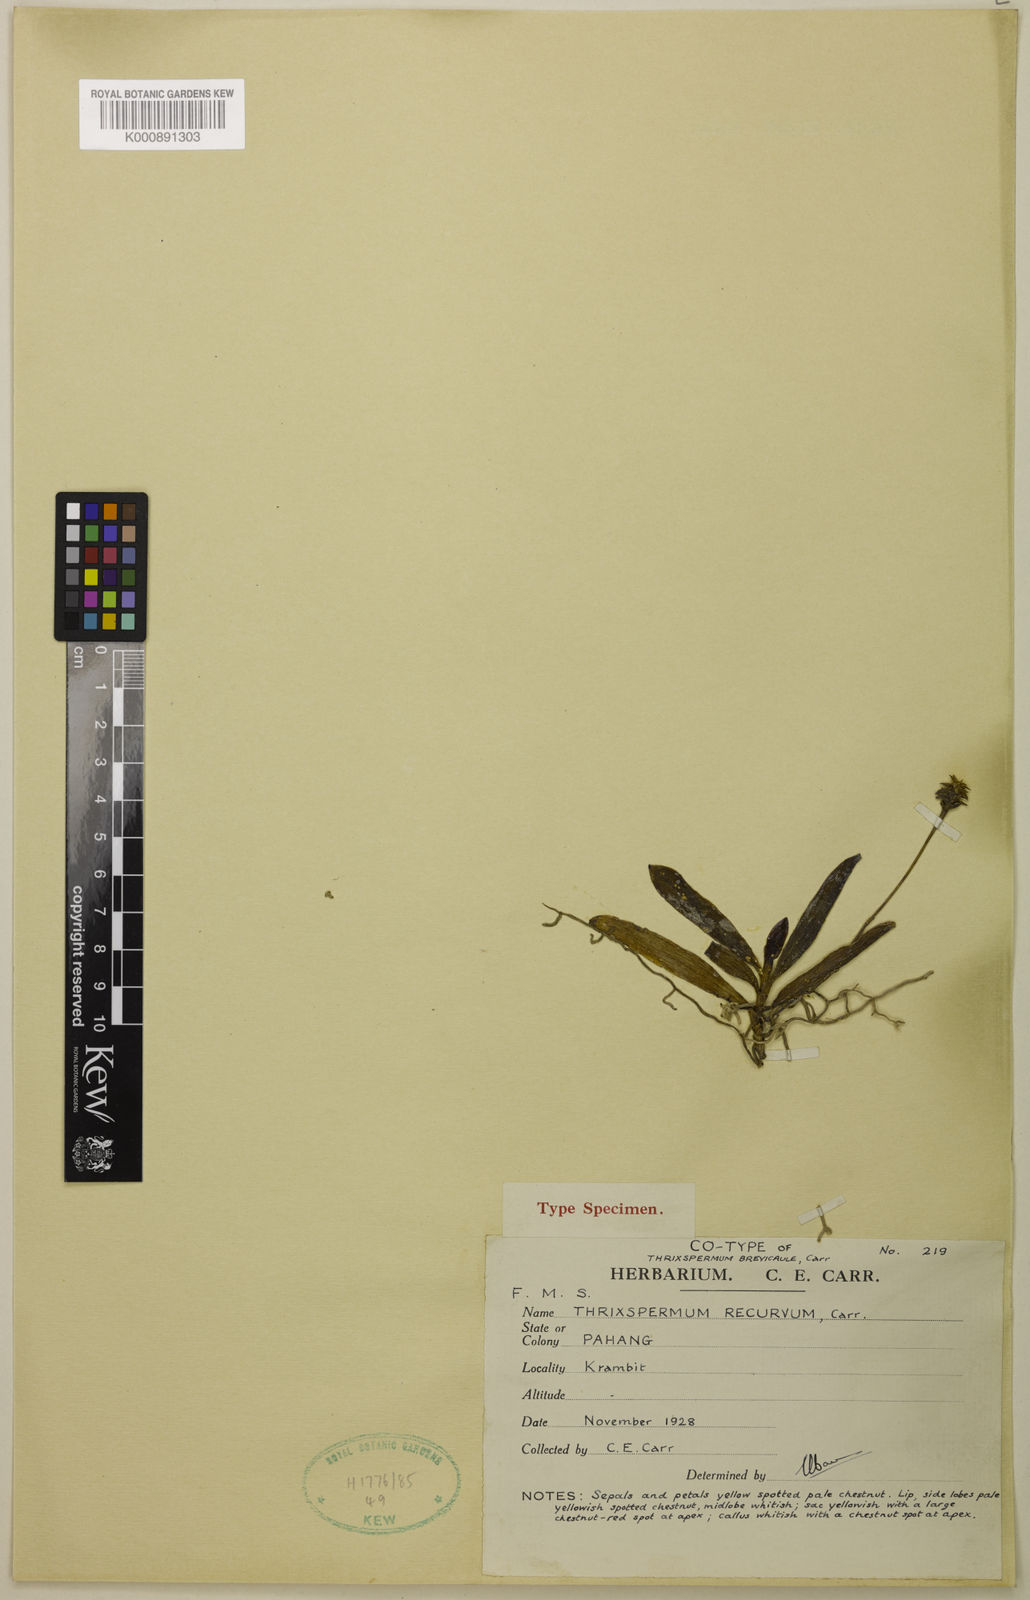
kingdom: Plantae
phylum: Tracheophyta
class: Liliopsida
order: Asparagales
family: Orchidaceae
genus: Thrixspermum
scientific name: Thrixspermum
